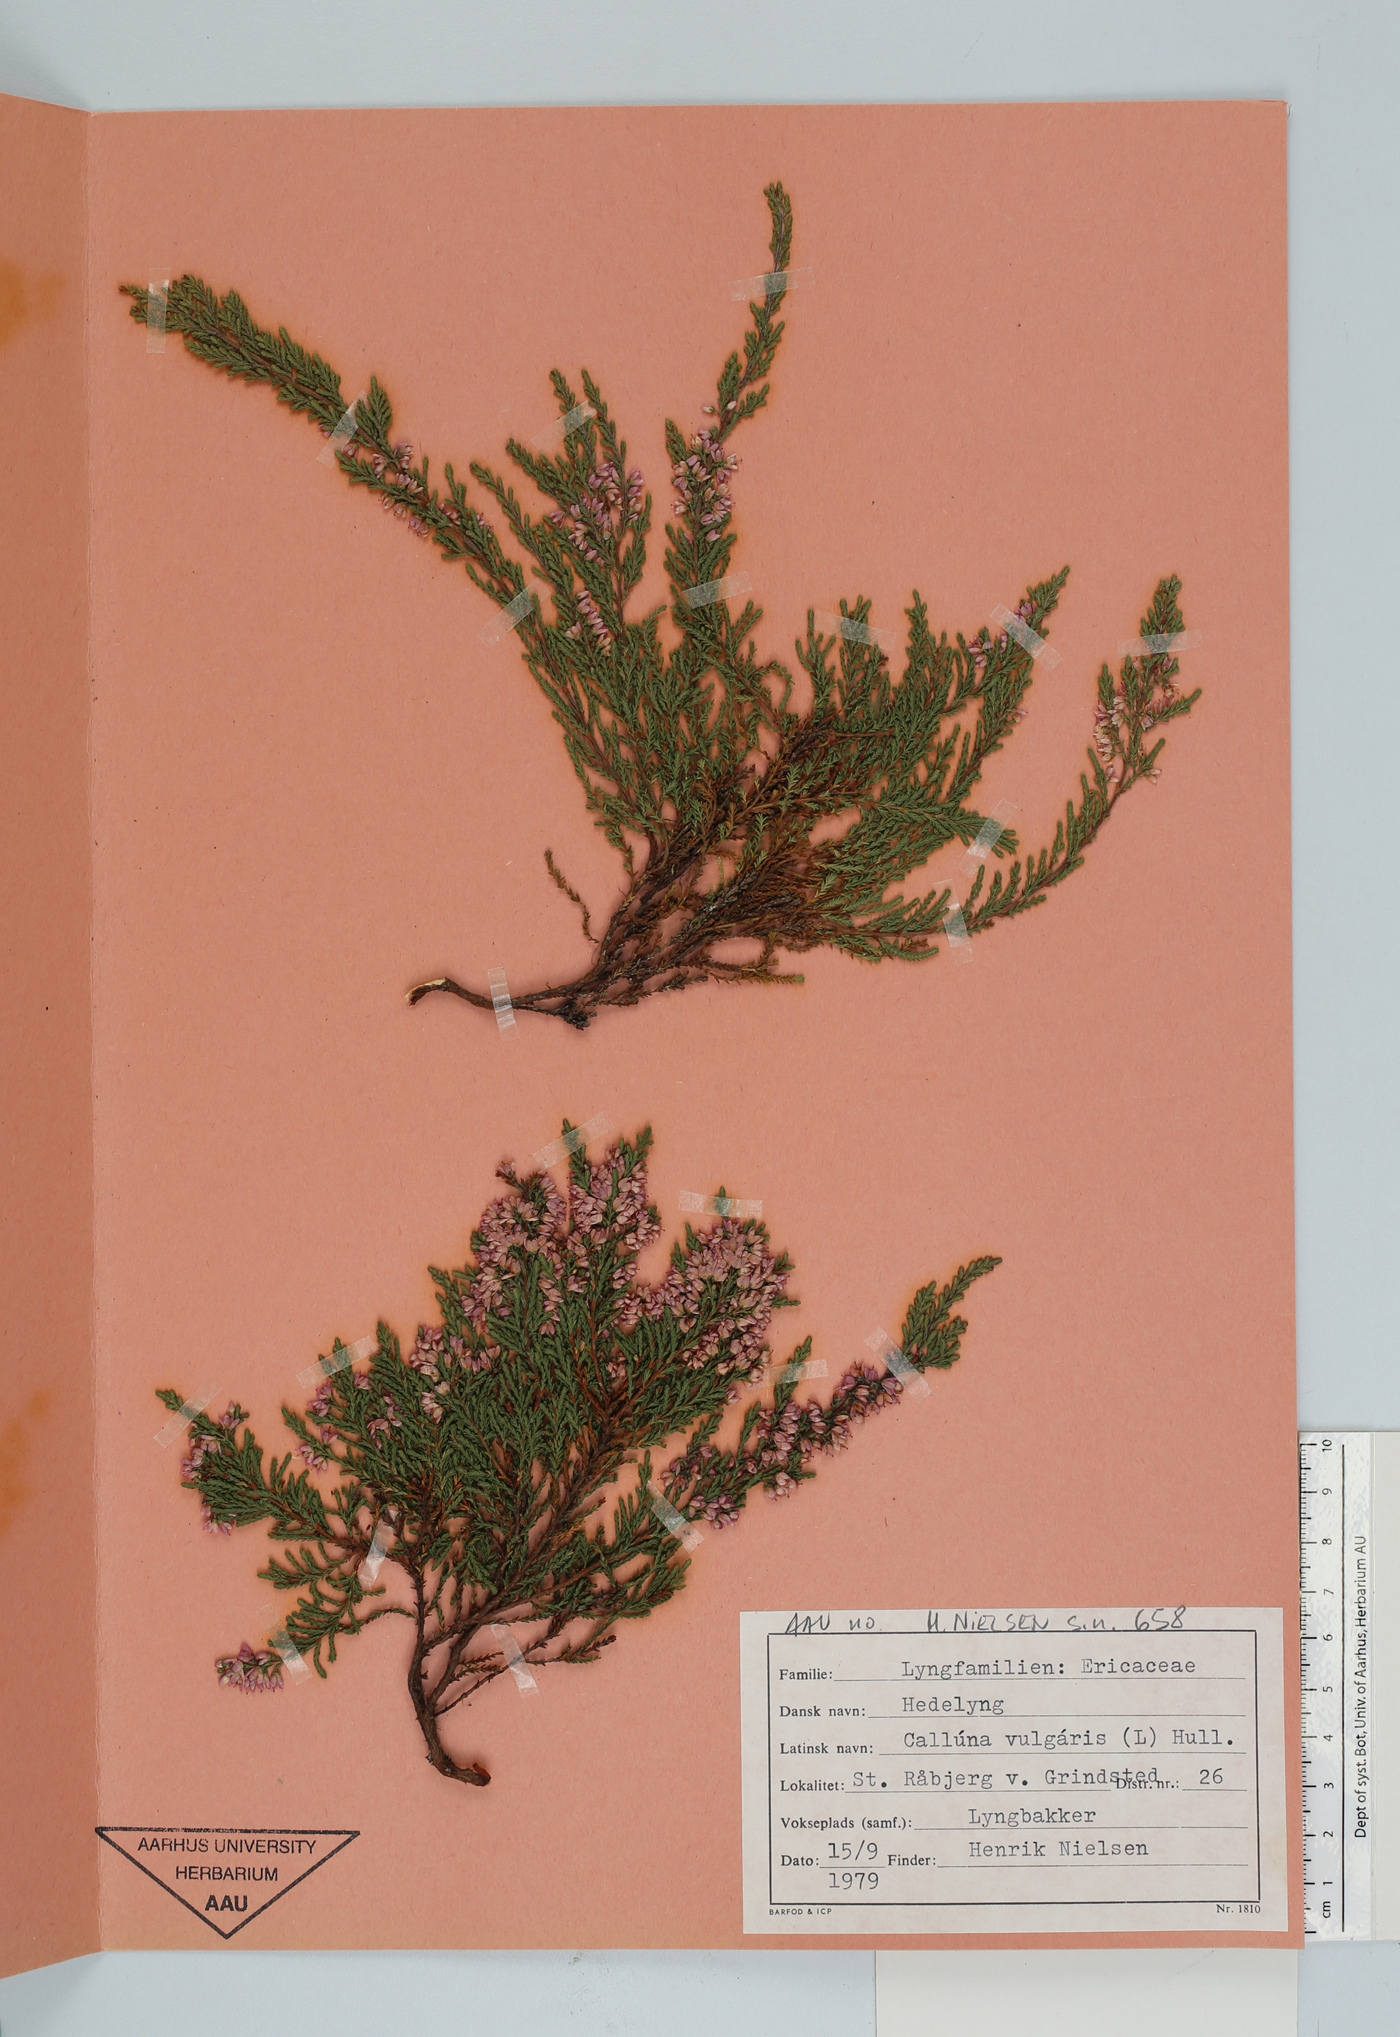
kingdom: Plantae
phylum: Tracheophyta
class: Magnoliopsida
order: Ericales
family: Ericaceae
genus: Calluna
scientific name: Calluna vulgaris
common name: Heather
